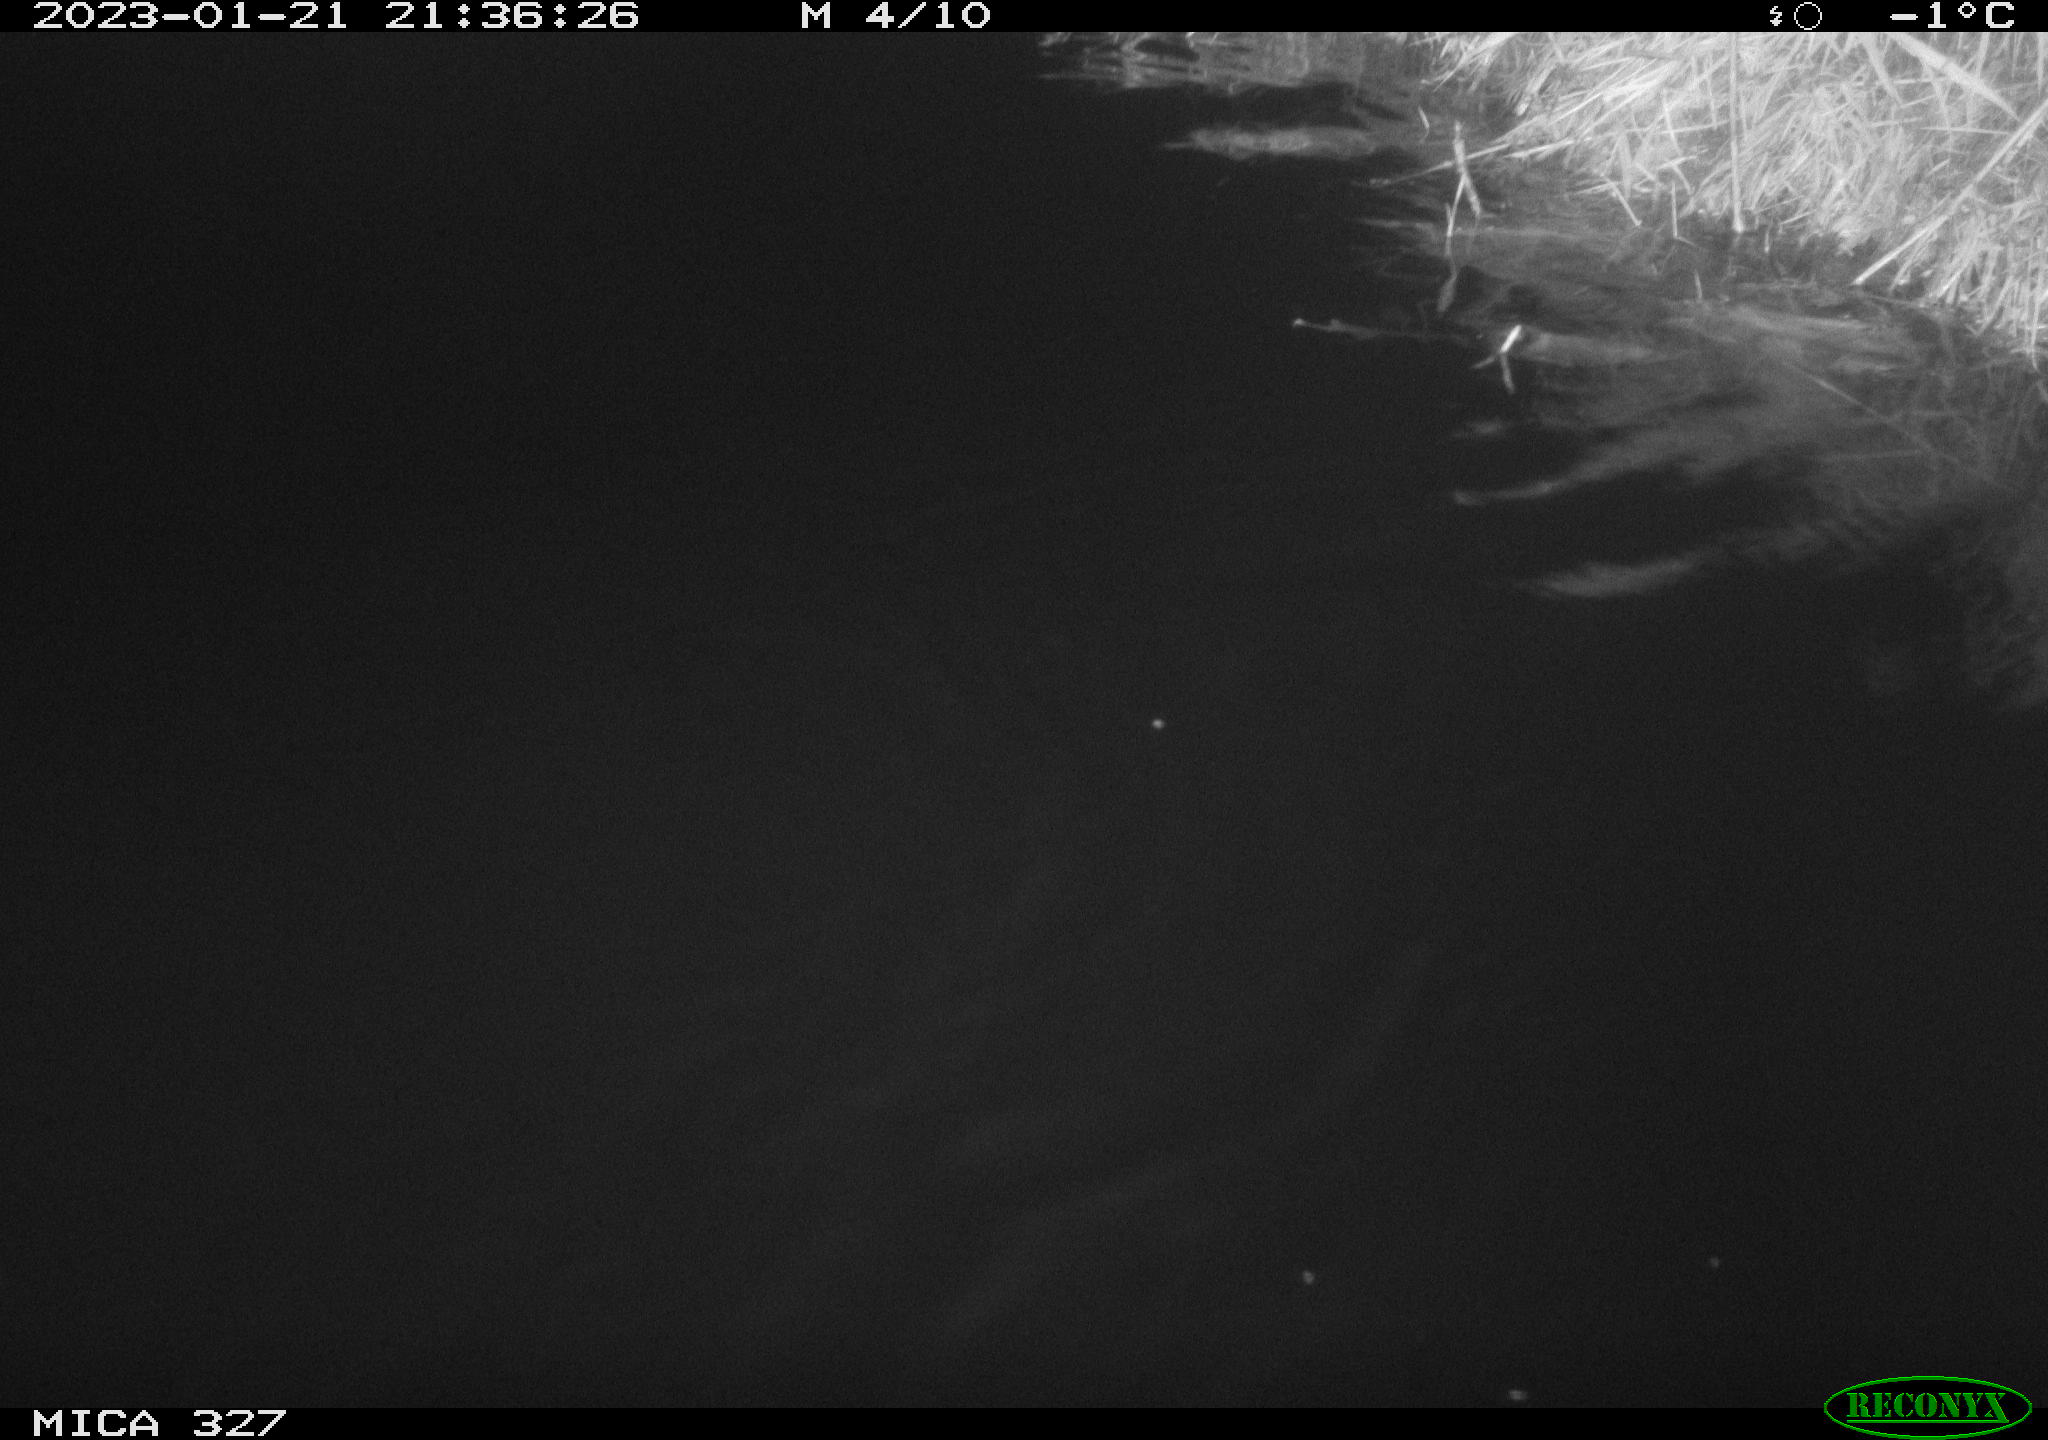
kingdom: Animalia
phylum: Chordata
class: Mammalia
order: Rodentia
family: Cricetidae
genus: Ondatra
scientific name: Ondatra zibethicus
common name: Muskrat
